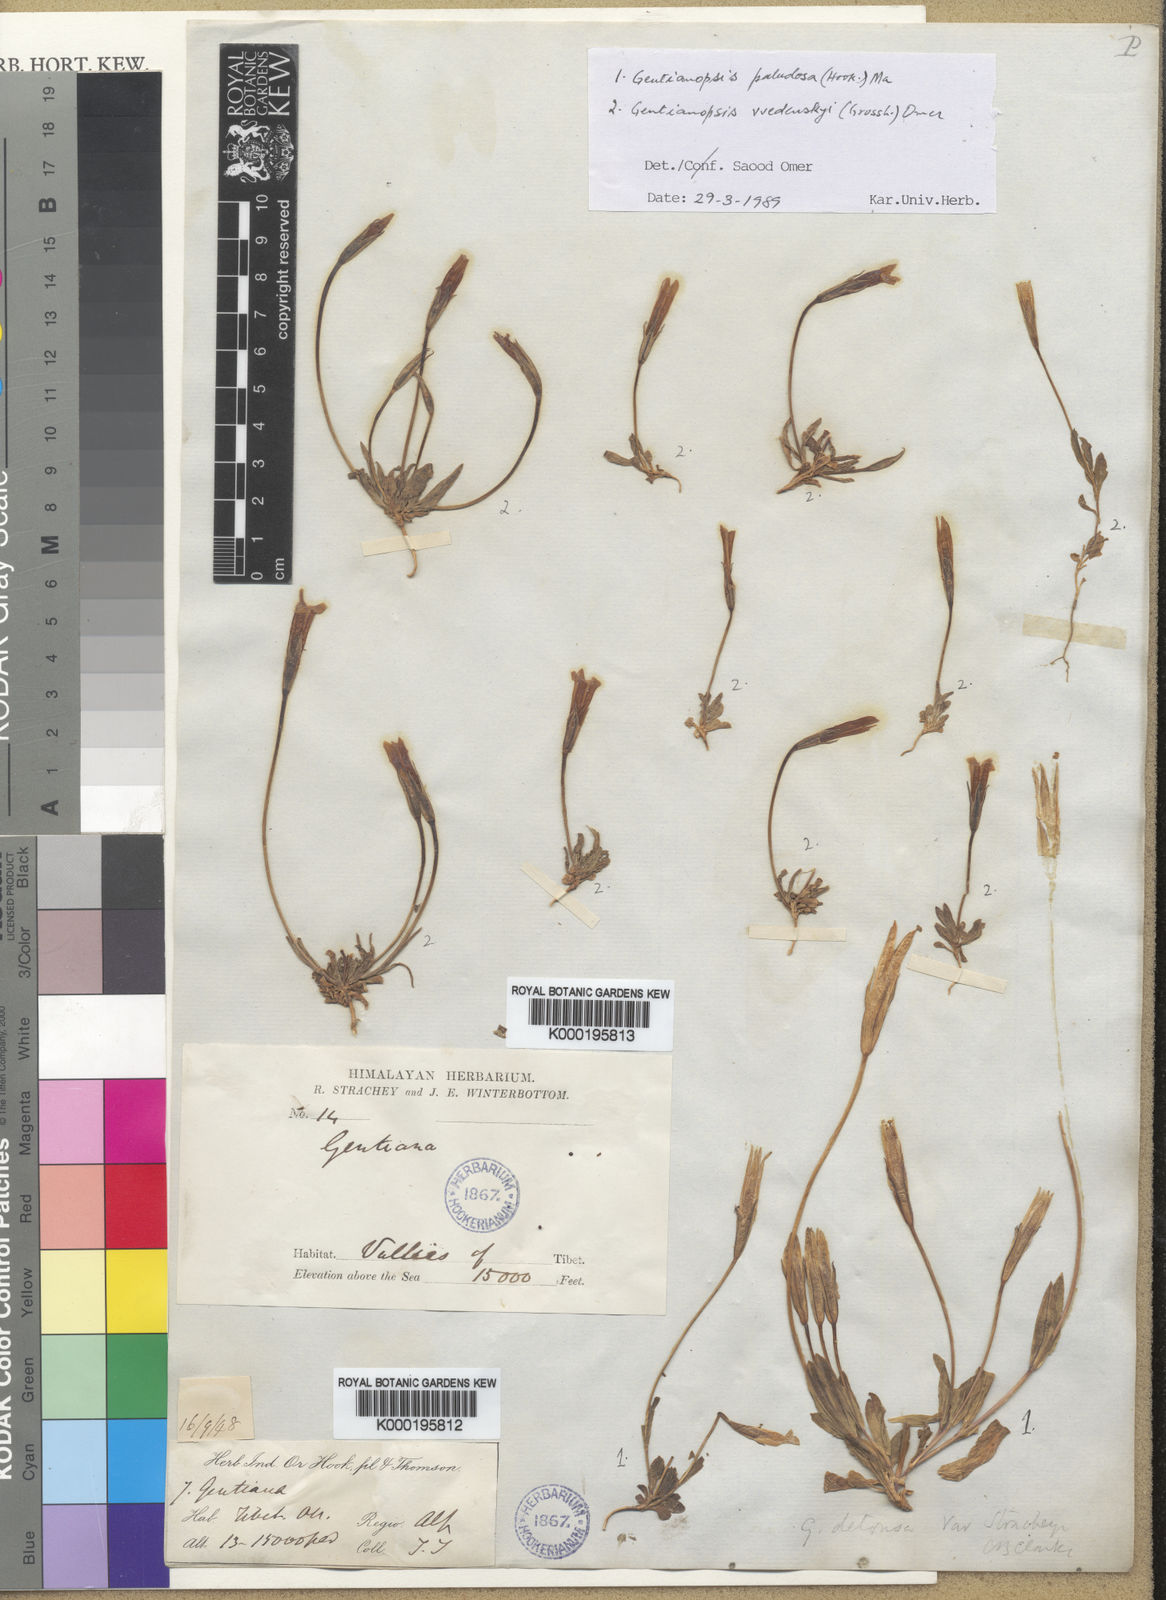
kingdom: Plantae
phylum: Tracheophyta
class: Magnoliopsida
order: Gentianales
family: Gentianaceae
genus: Gentianopsis
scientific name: Gentianopsis paludosa
